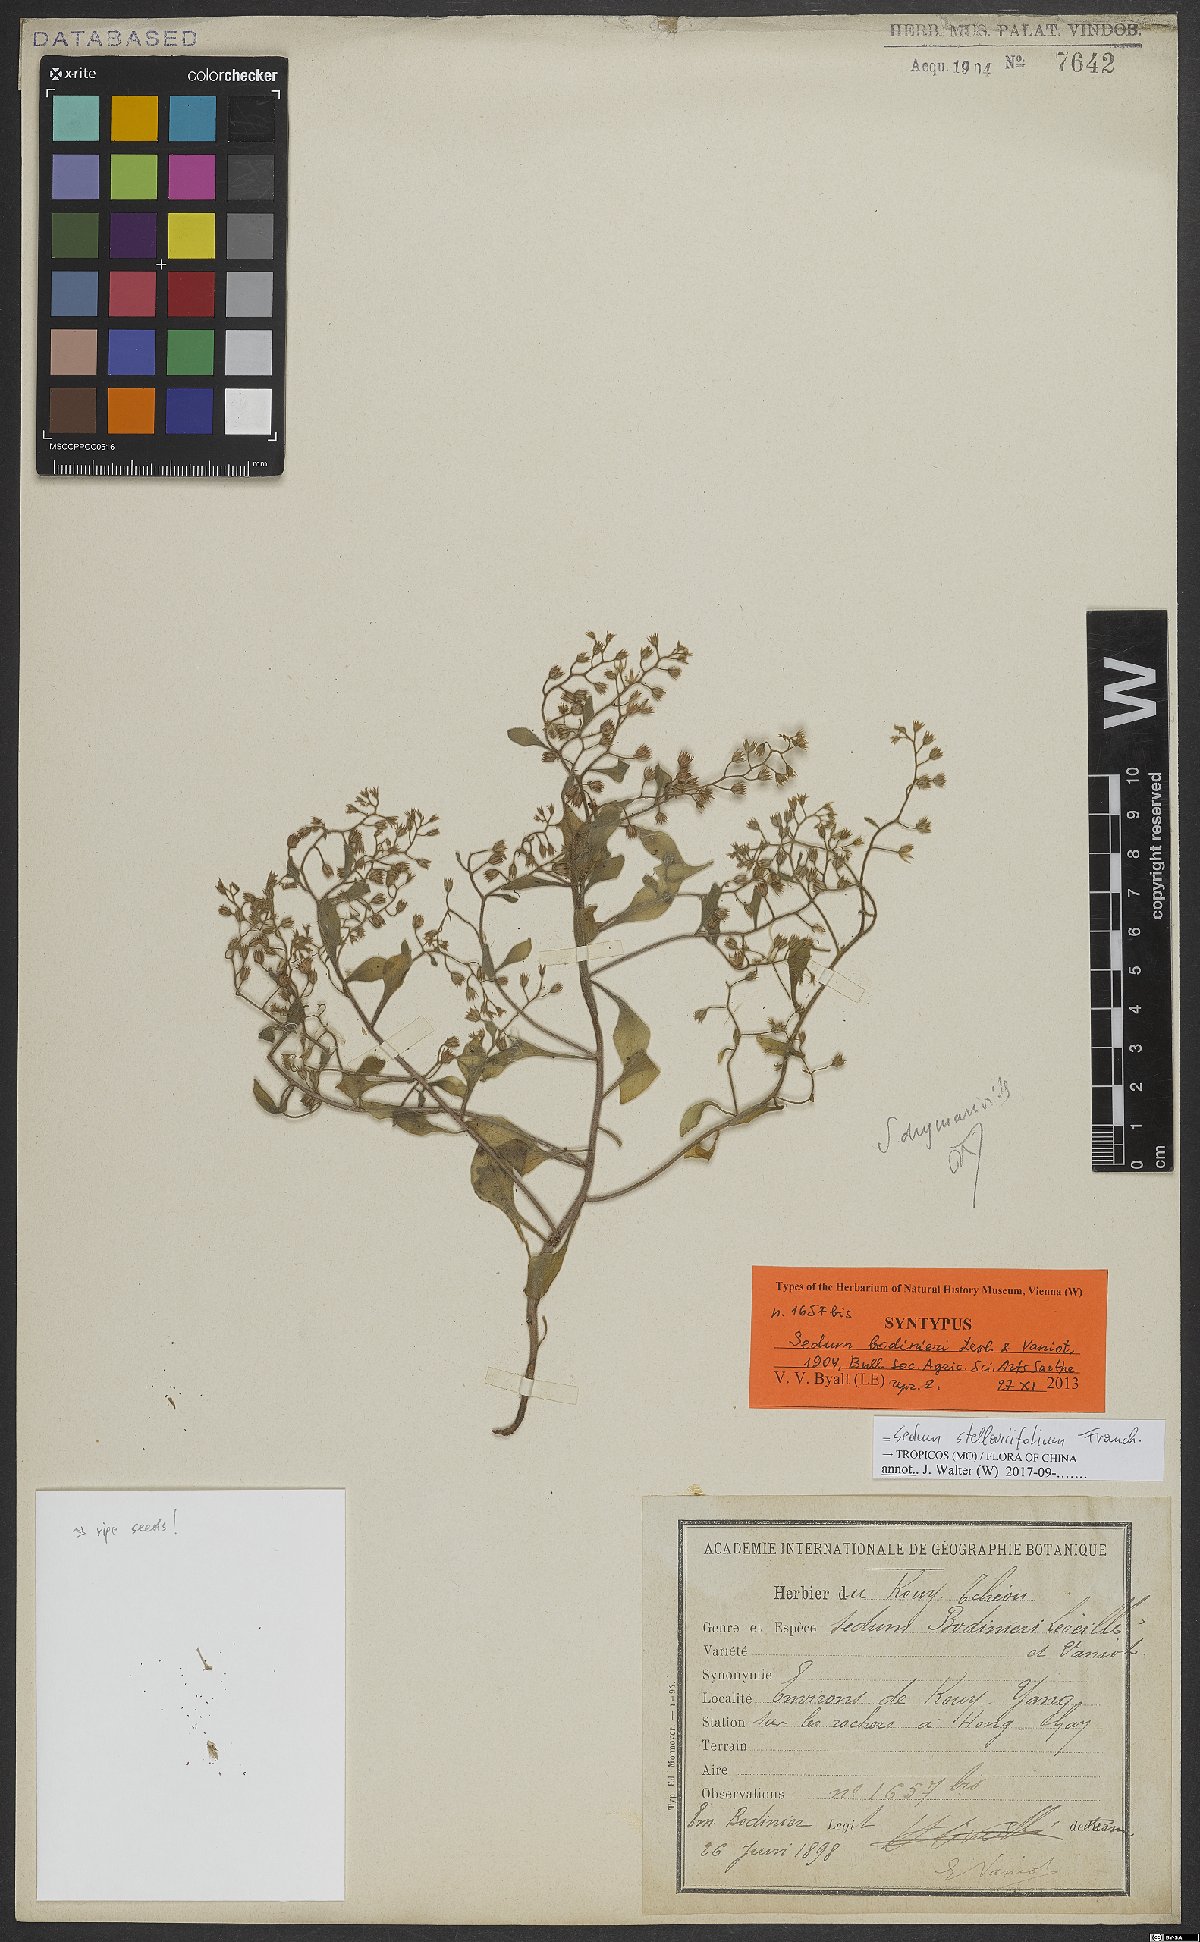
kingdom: Plantae
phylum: Tracheophyta
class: Magnoliopsida
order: Saxifragales
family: Crassulaceae
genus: Sedum
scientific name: Sedum stellariifolium
